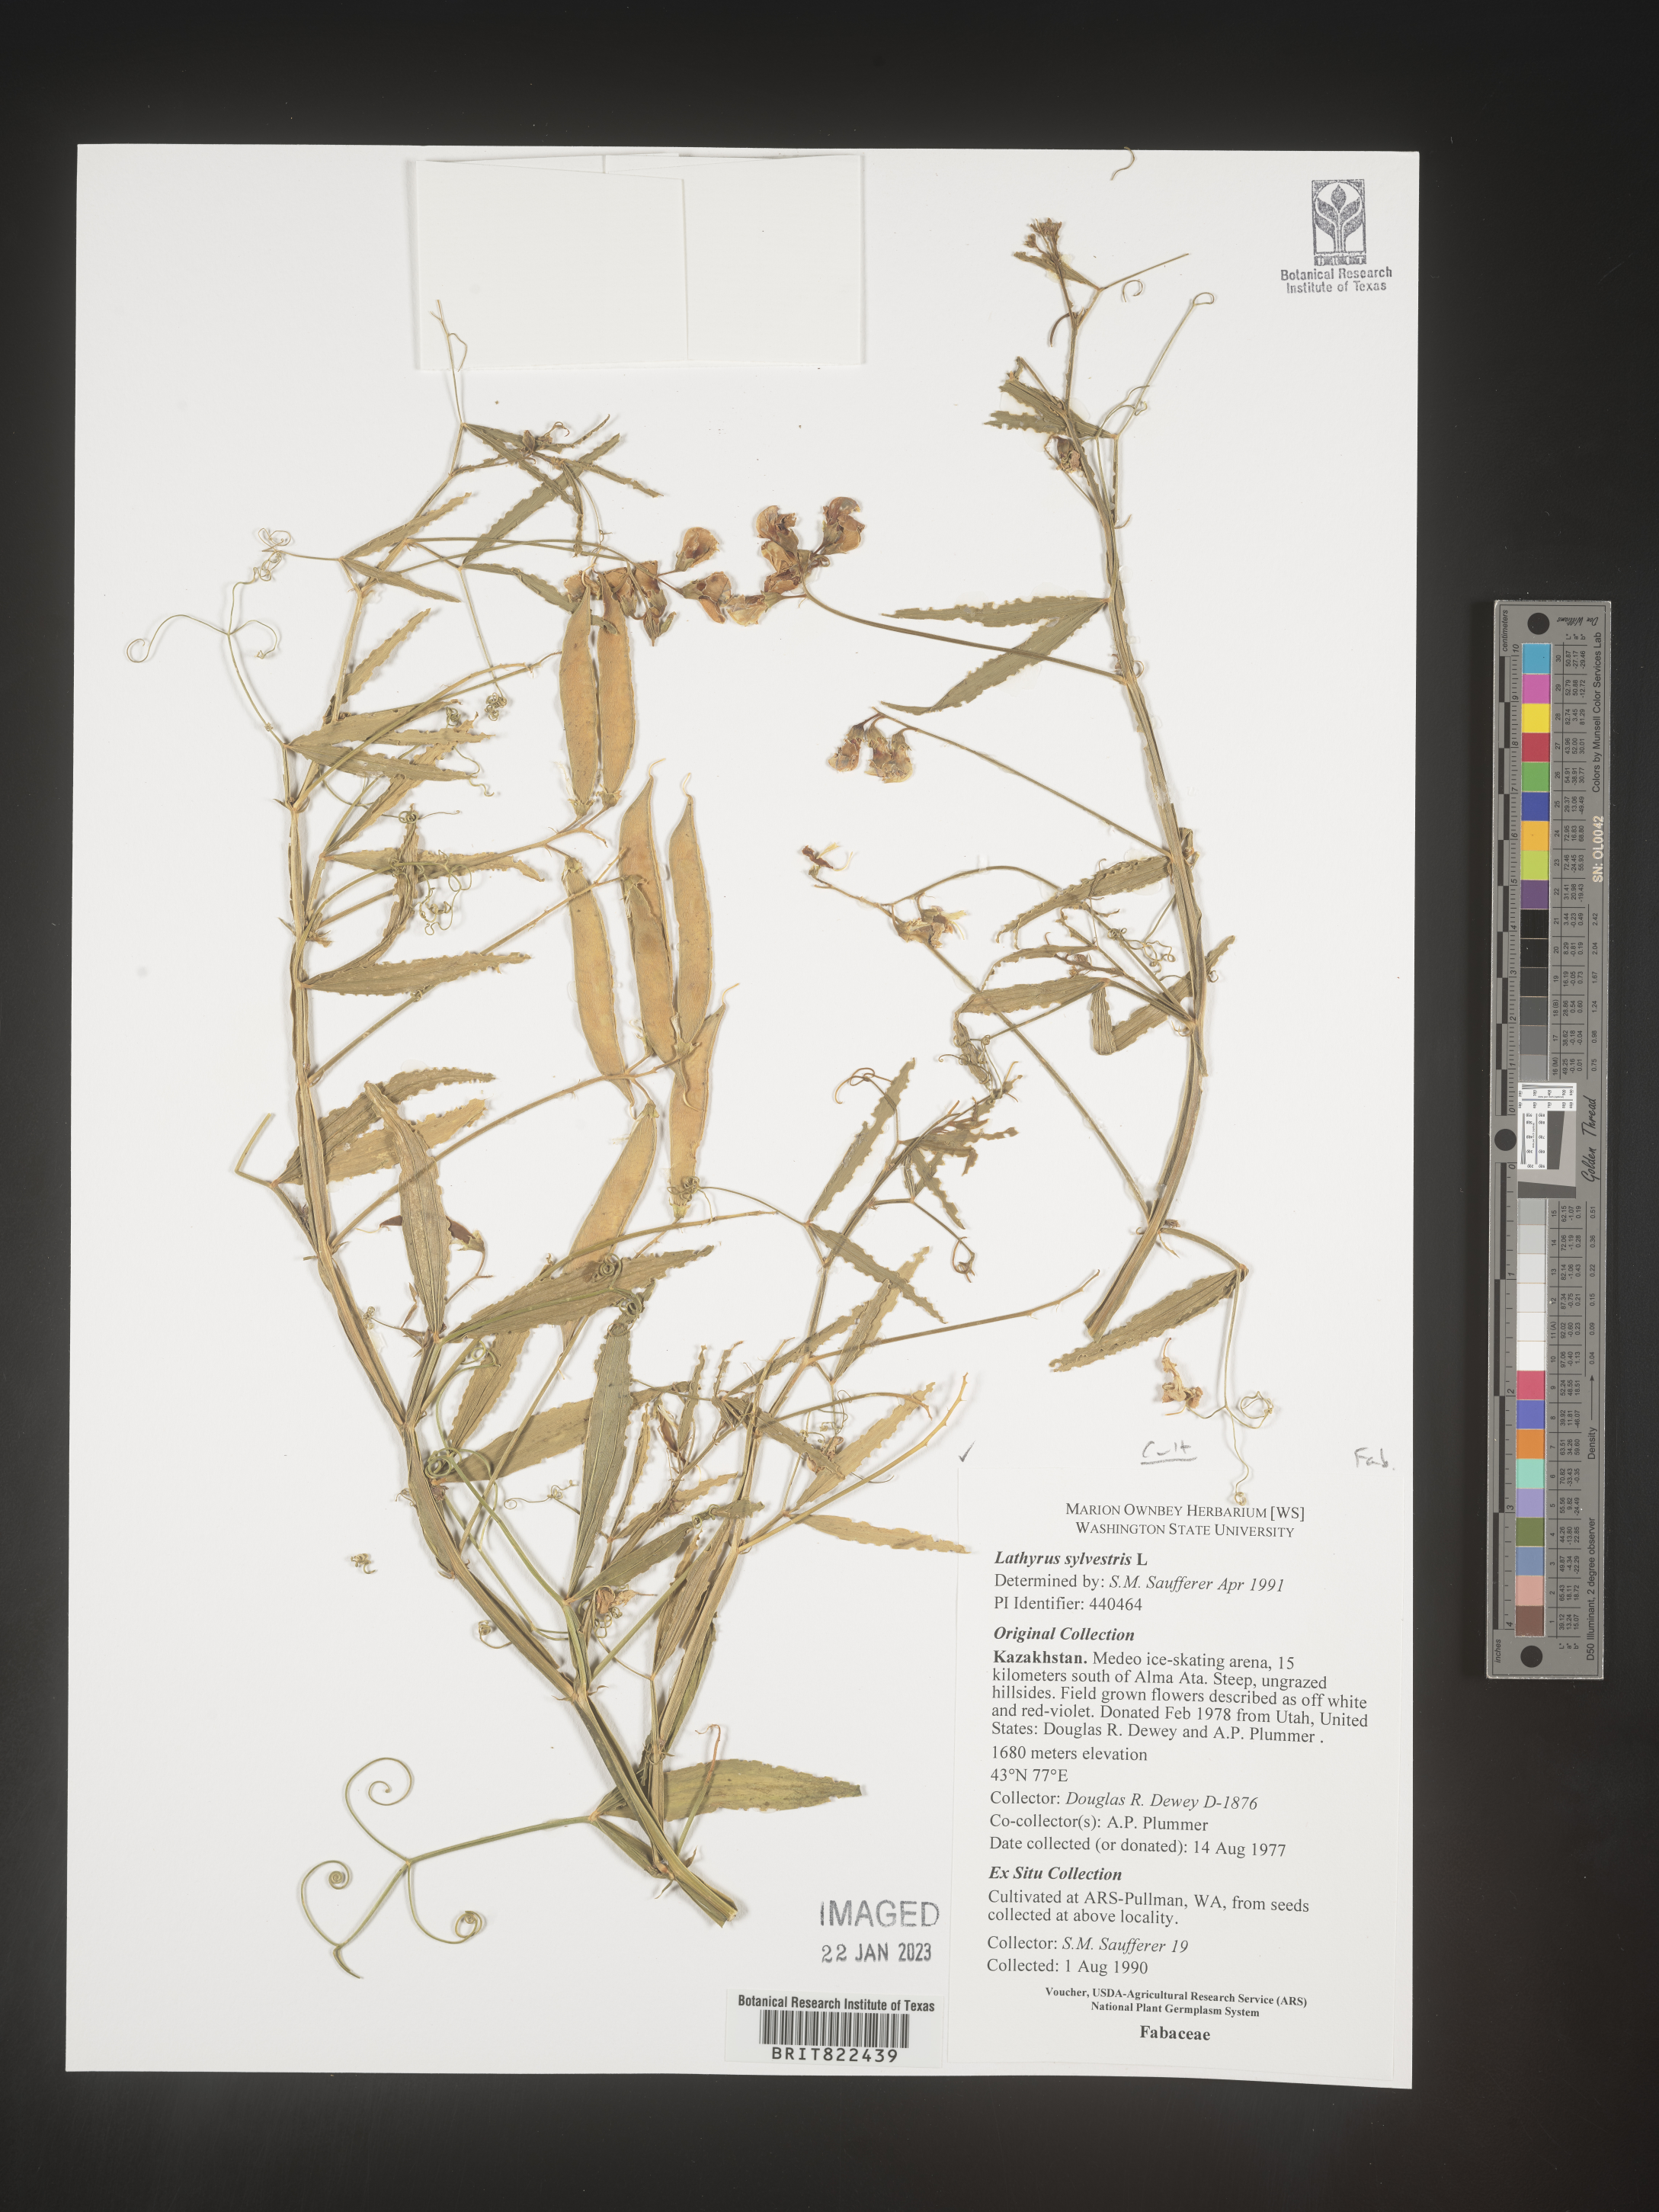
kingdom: Plantae
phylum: Tracheophyta
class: Magnoliopsida
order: Fabales
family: Fabaceae
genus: Lathyrus
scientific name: Lathyrus
